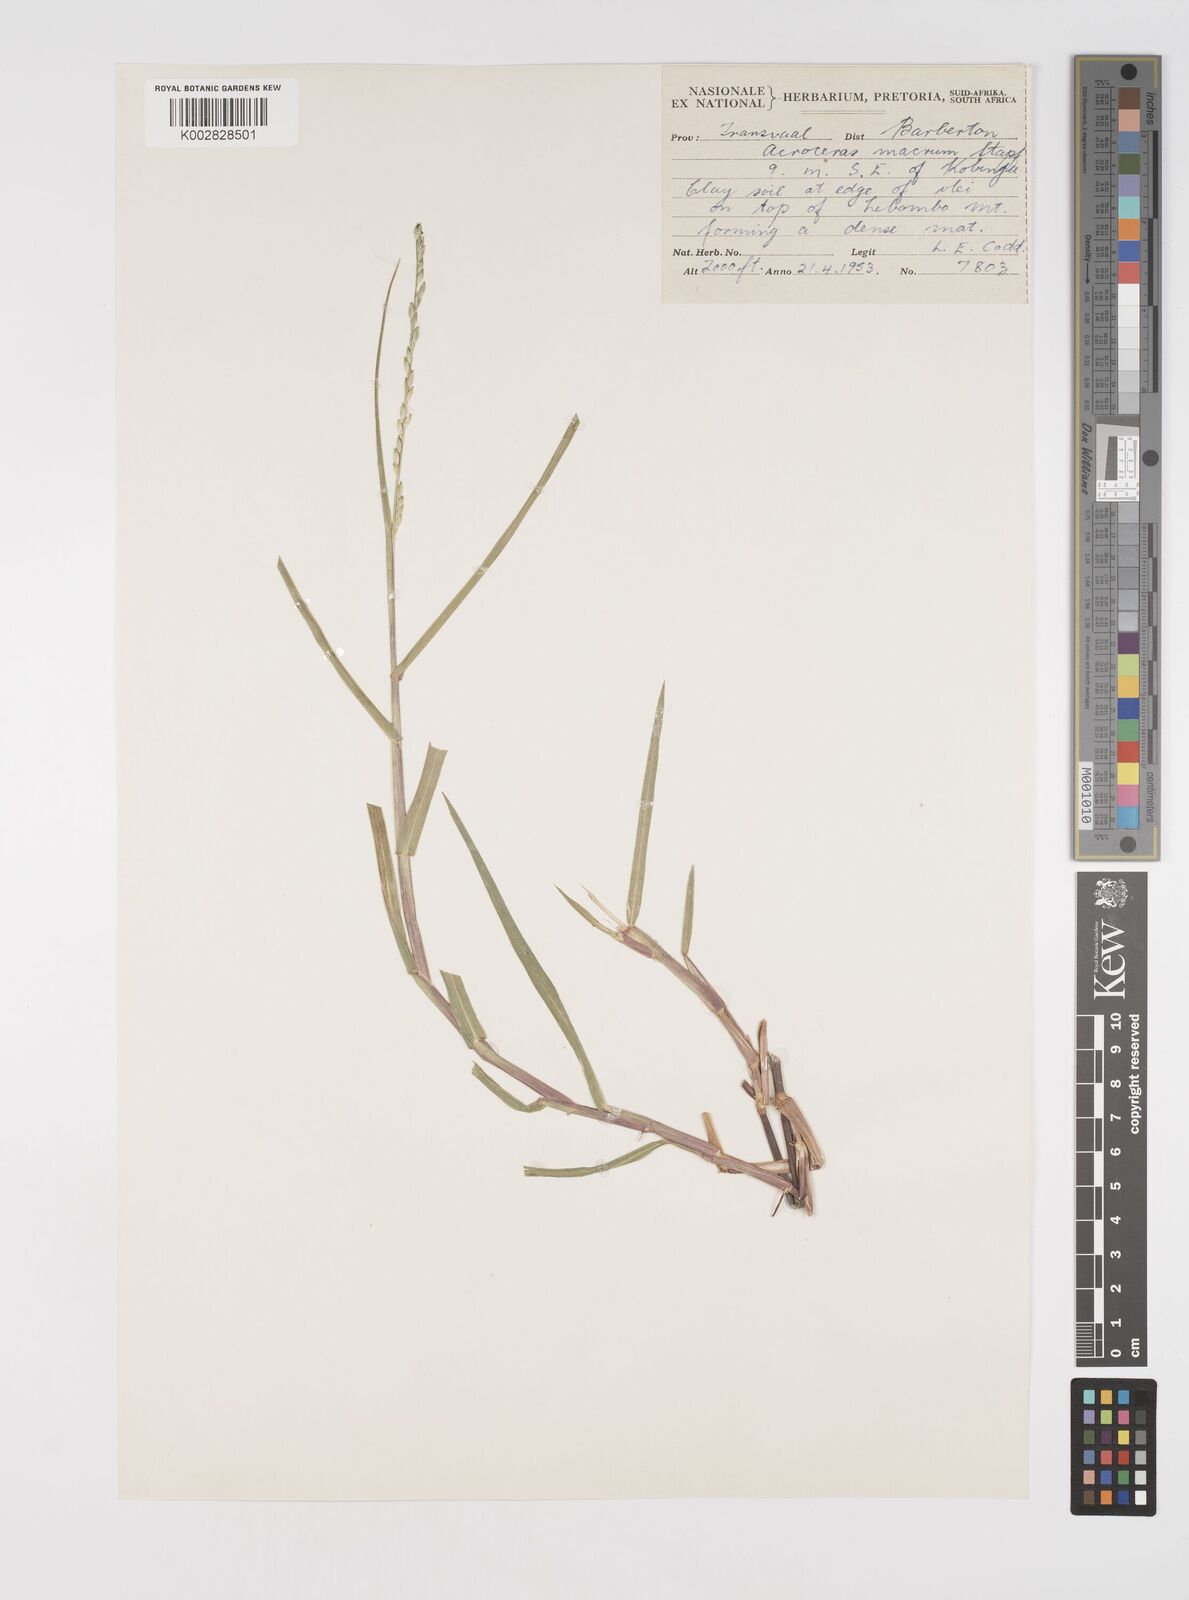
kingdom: Plantae
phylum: Tracheophyta
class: Liliopsida
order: Poales
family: Poaceae
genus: Acroceras
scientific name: Acroceras macrum
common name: Nyl grass
